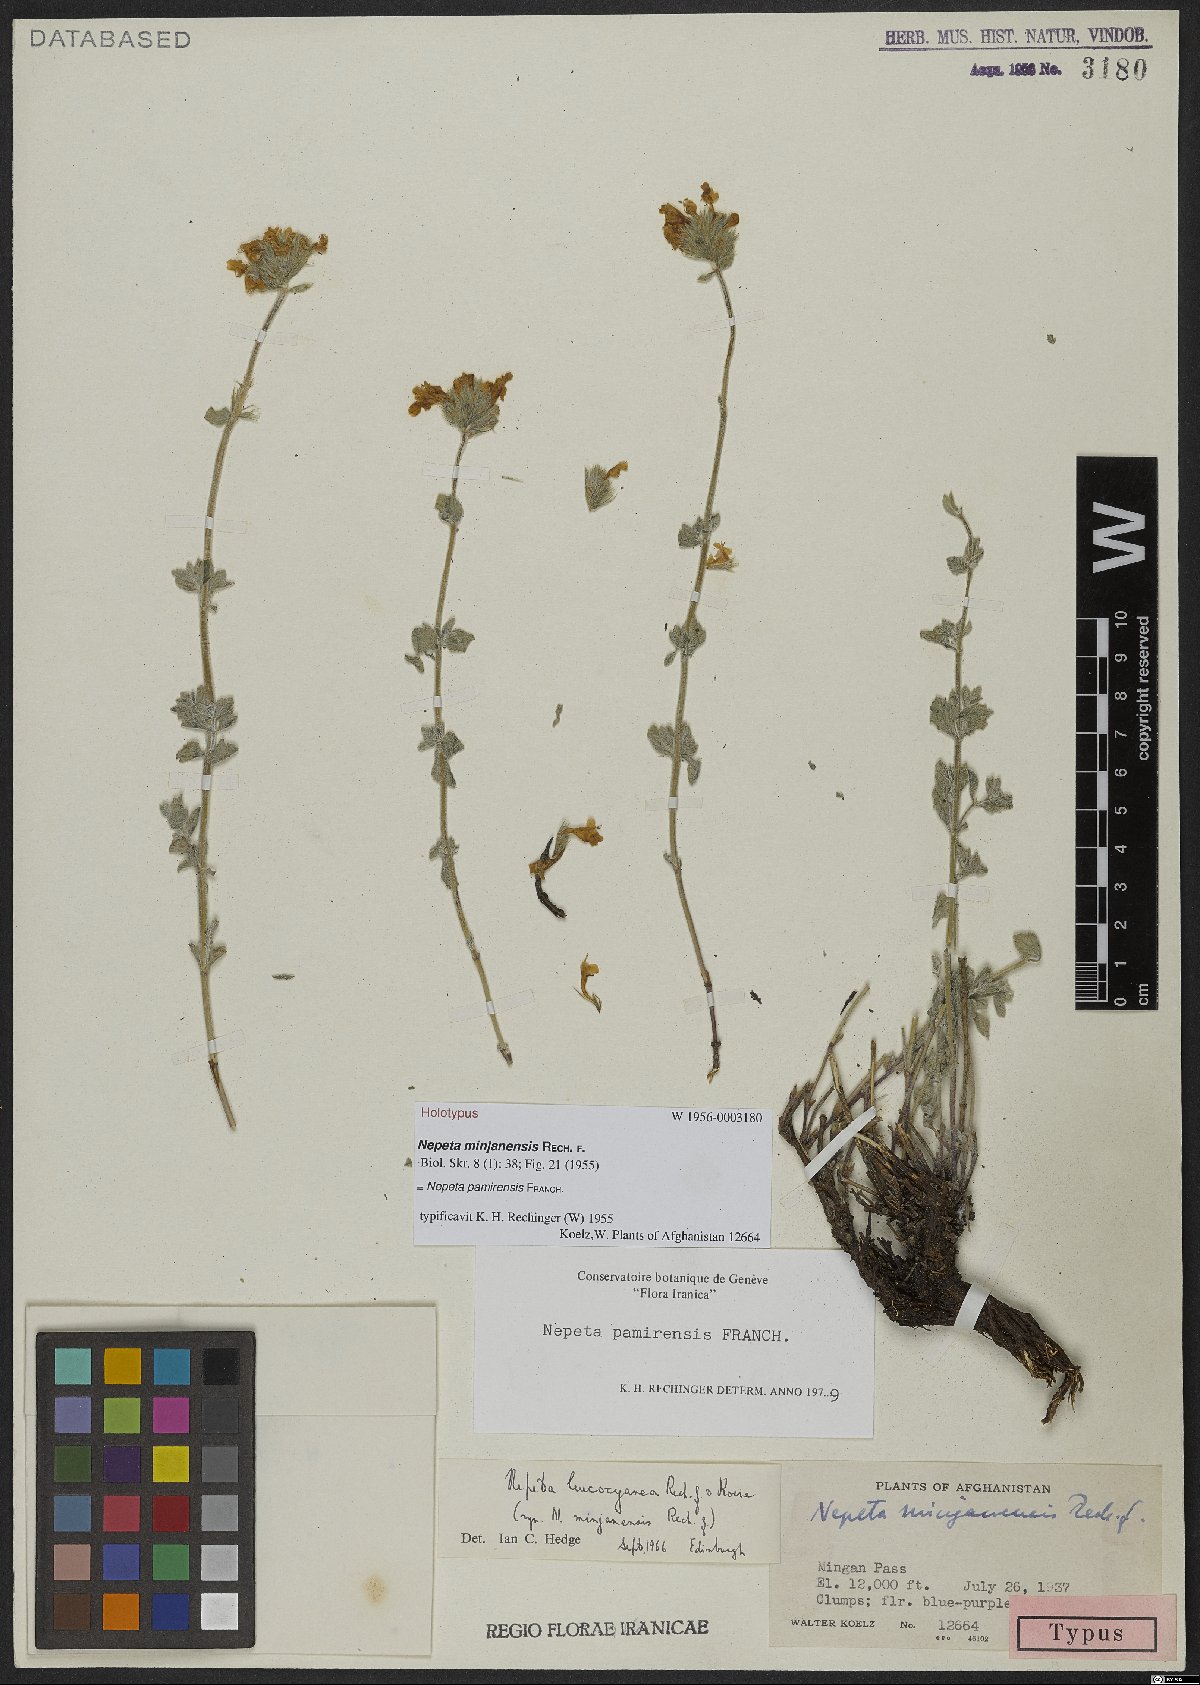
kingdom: Plantae
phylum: Tracheophyta
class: Magnoliopsida
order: Lamiales
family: Lamiaceae
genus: Nepeta
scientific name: Nepeta pamirensis
